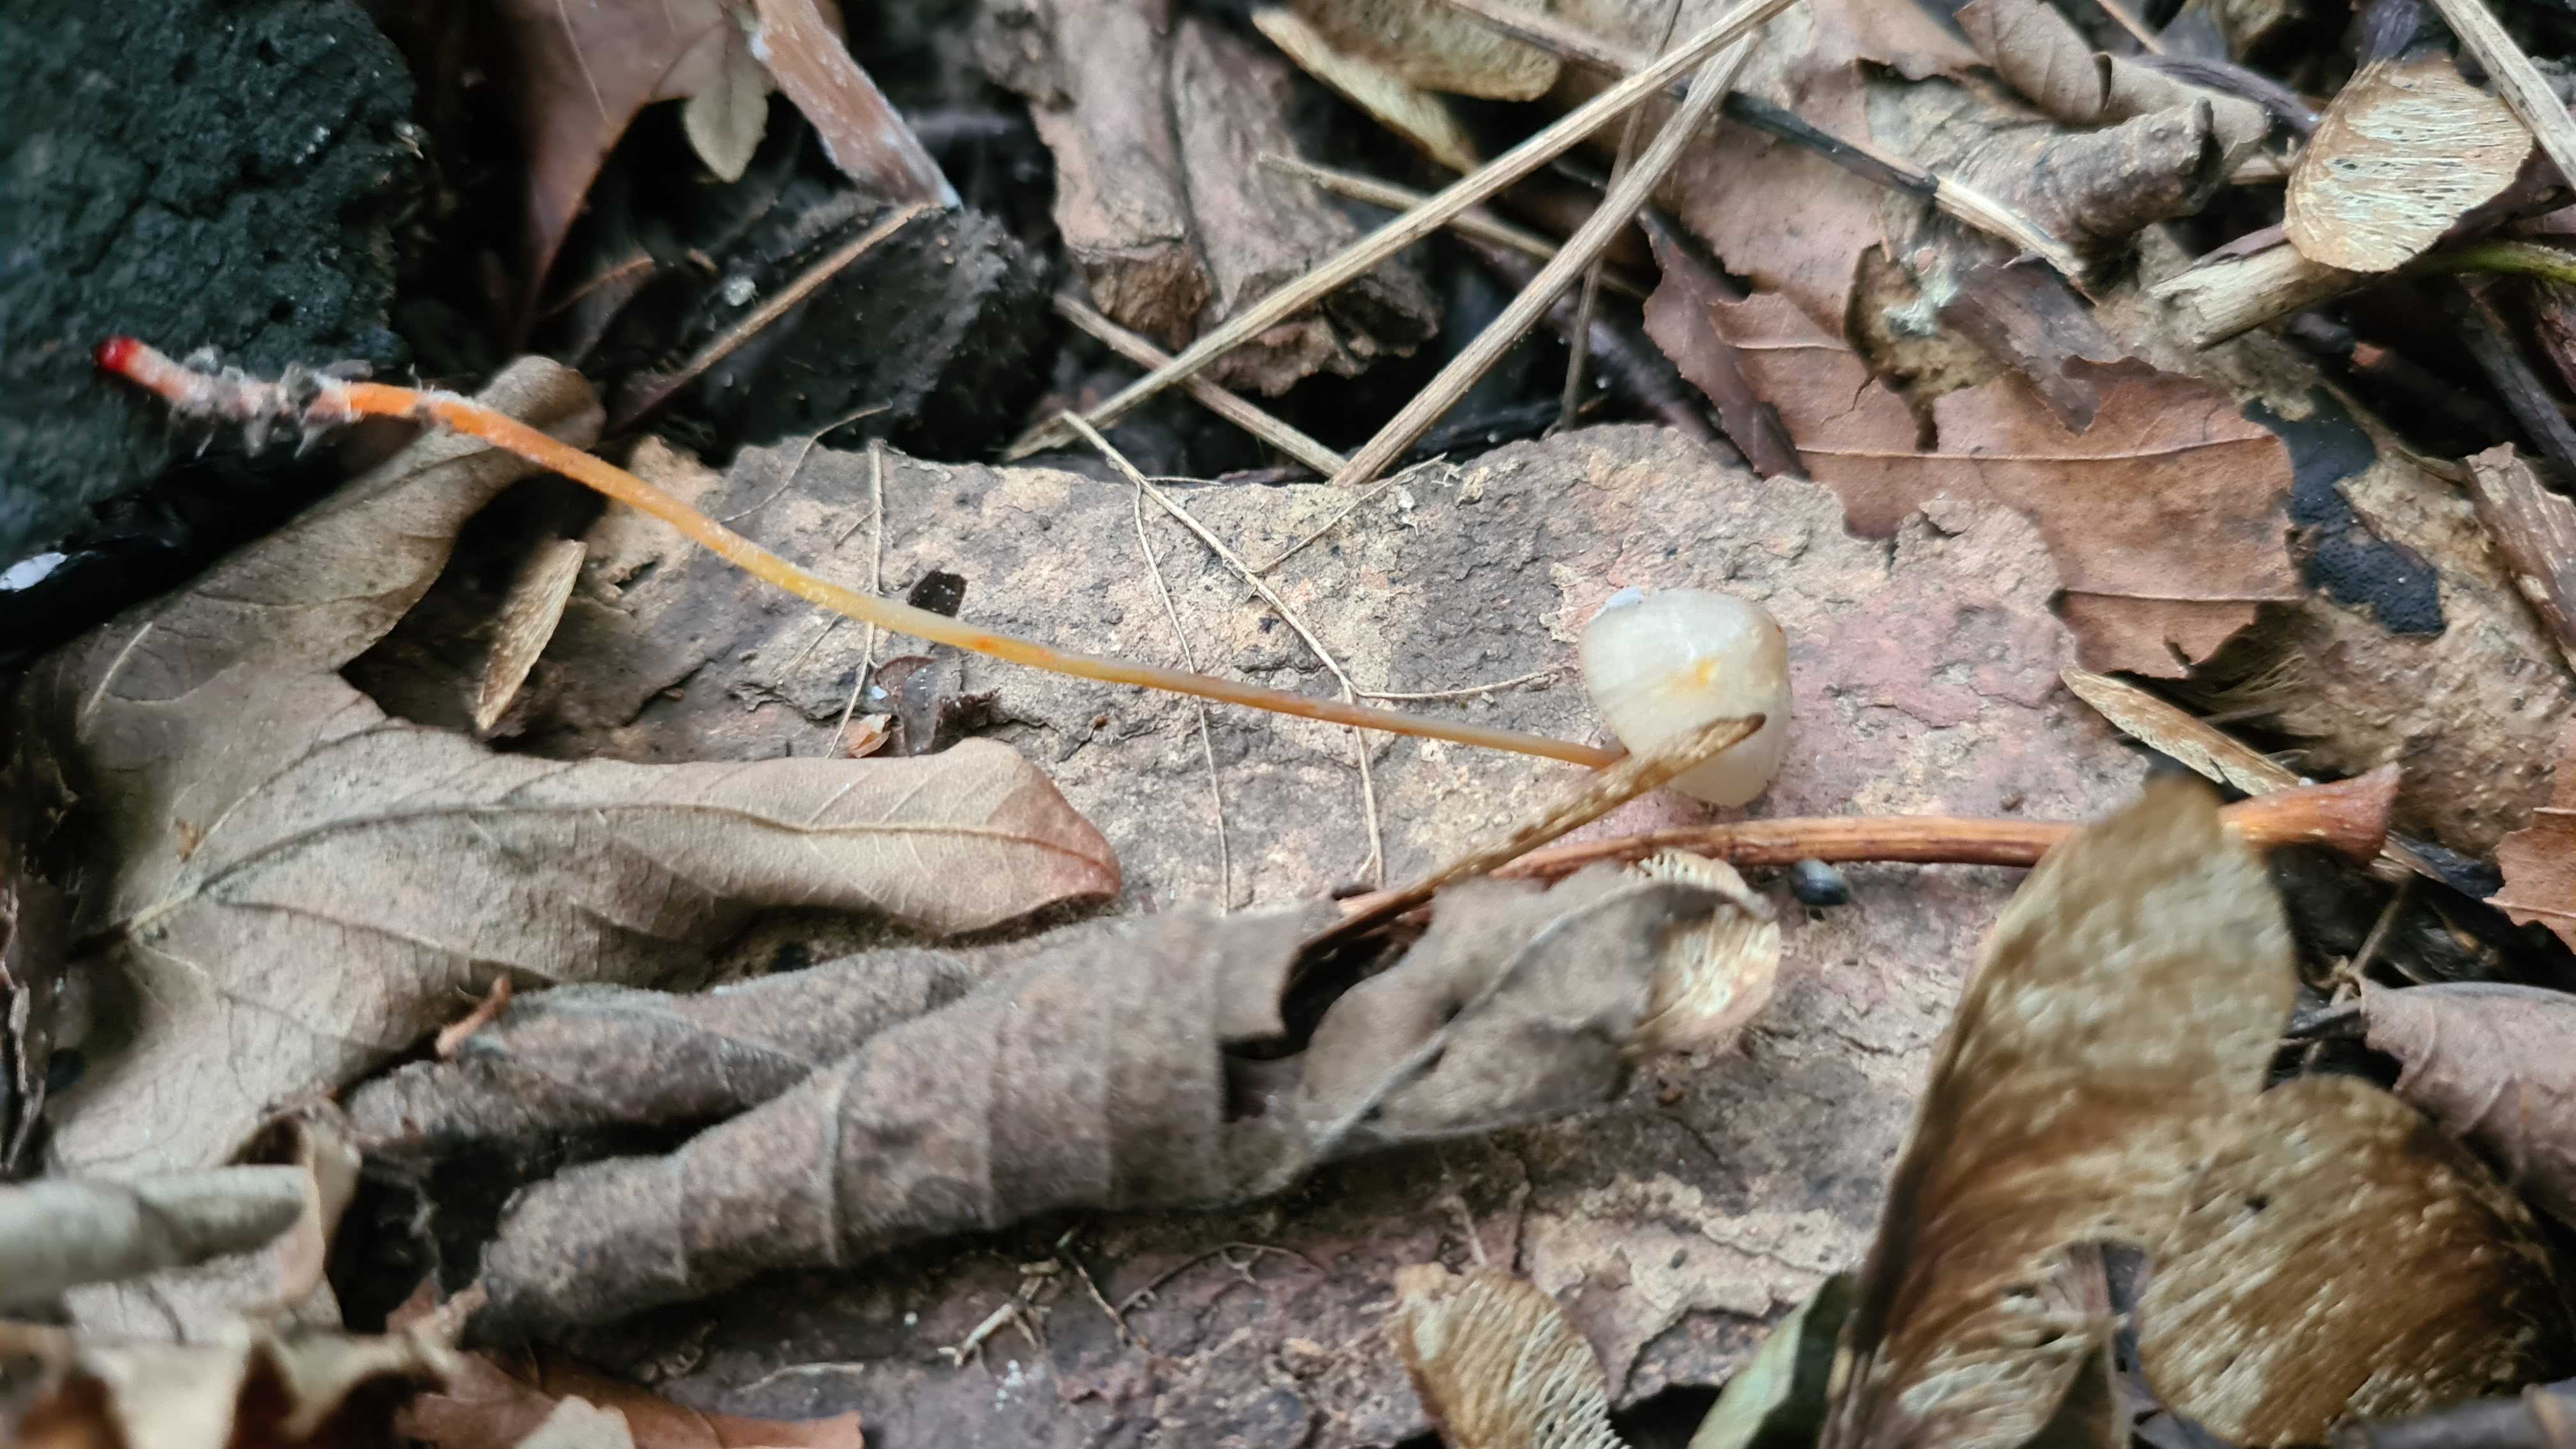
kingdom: Fungi
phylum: Basidiomycota
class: Agaricomycetes
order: Agaricales
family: Mycenaceae
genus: Mycena
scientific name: Mycena crocata
